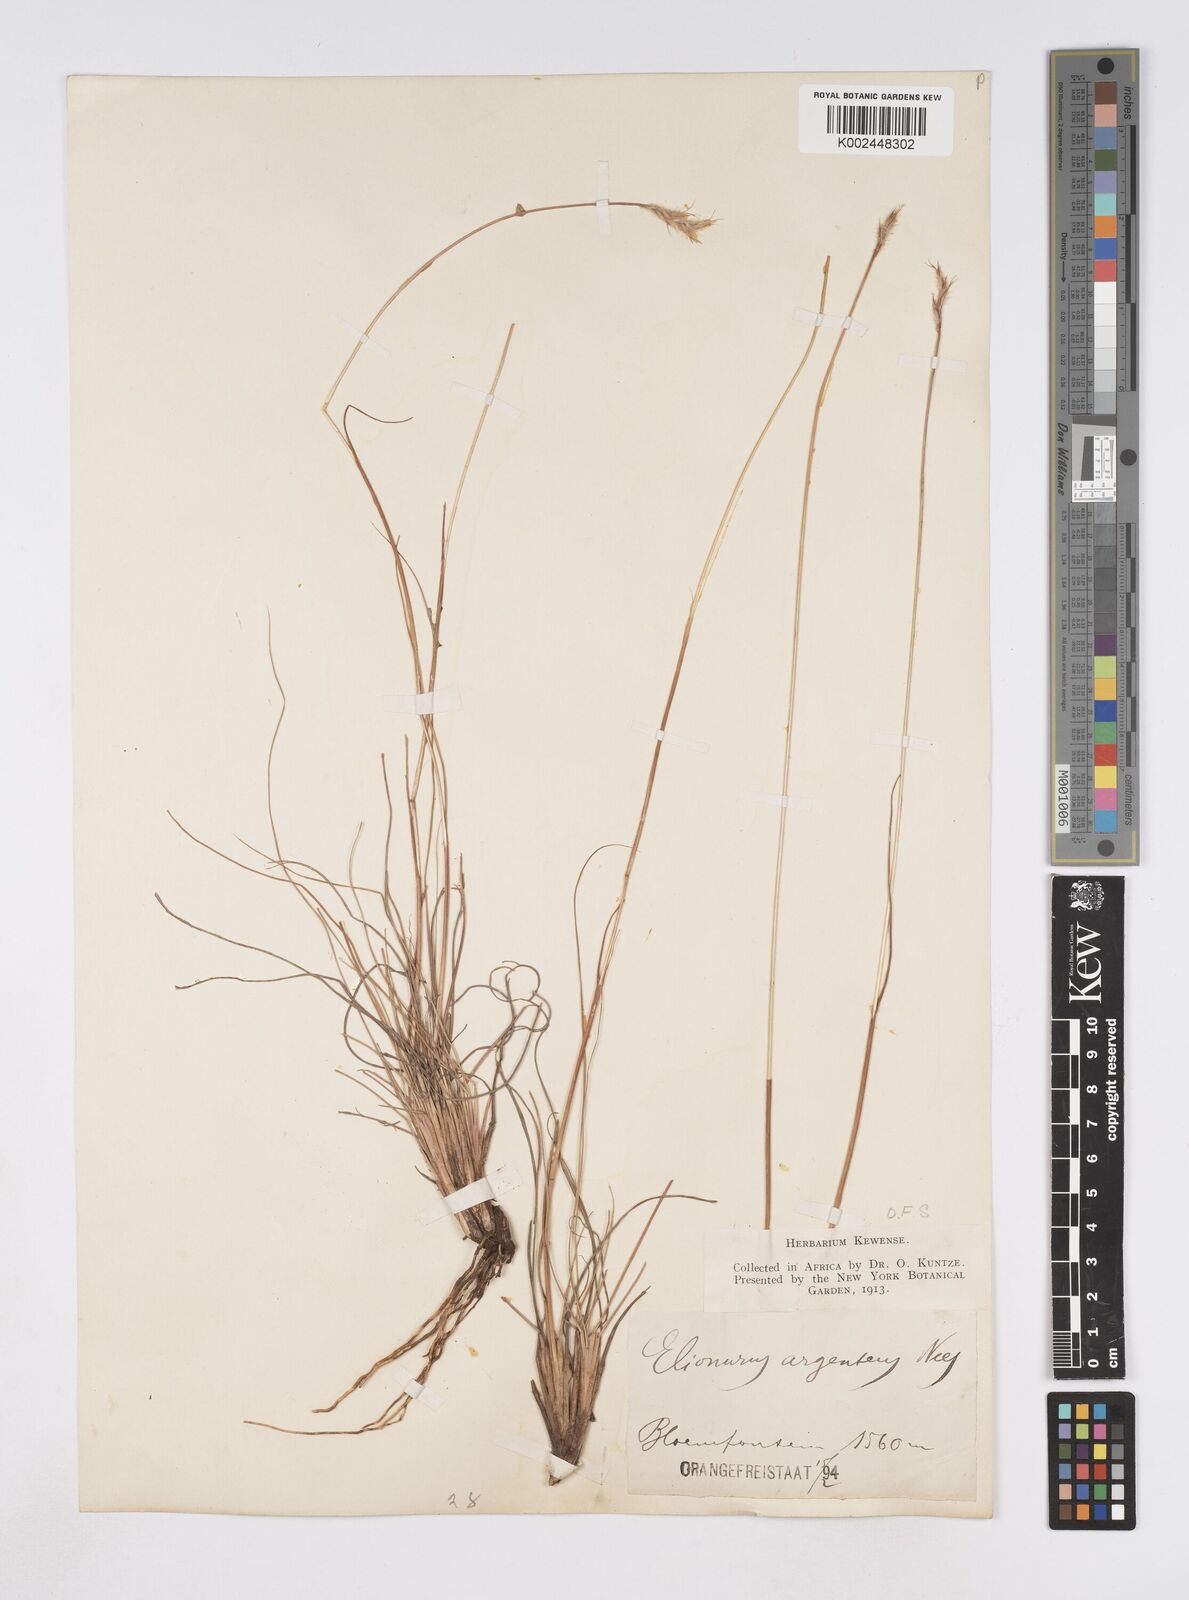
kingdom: Plantae
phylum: Tracheophyta
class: Liliopsida
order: Poales
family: Poaceae
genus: Elionurus
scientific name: Elionurus muticus
